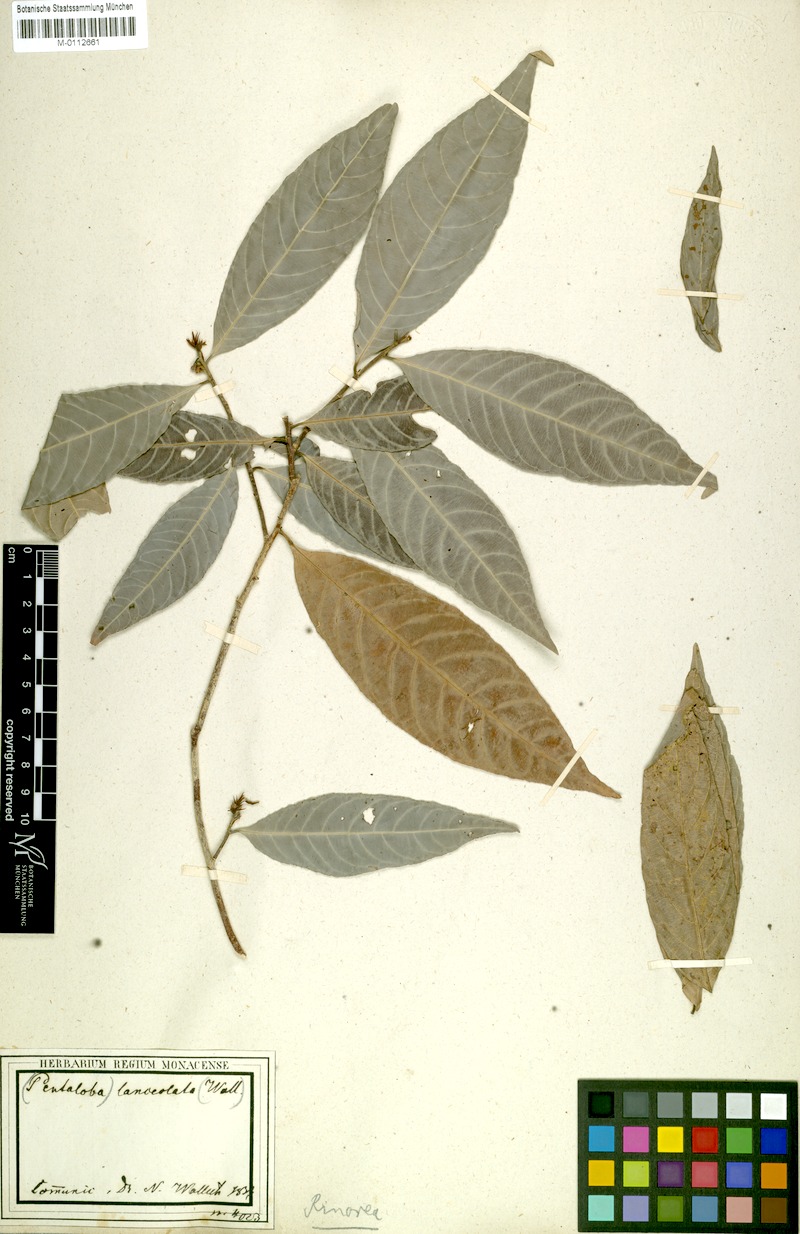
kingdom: Plantae
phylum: Tracheophyta
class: Magnoliopsida
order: Malpighiales
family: Violaceae
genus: Rinorea
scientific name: Rinorea lanceolata
